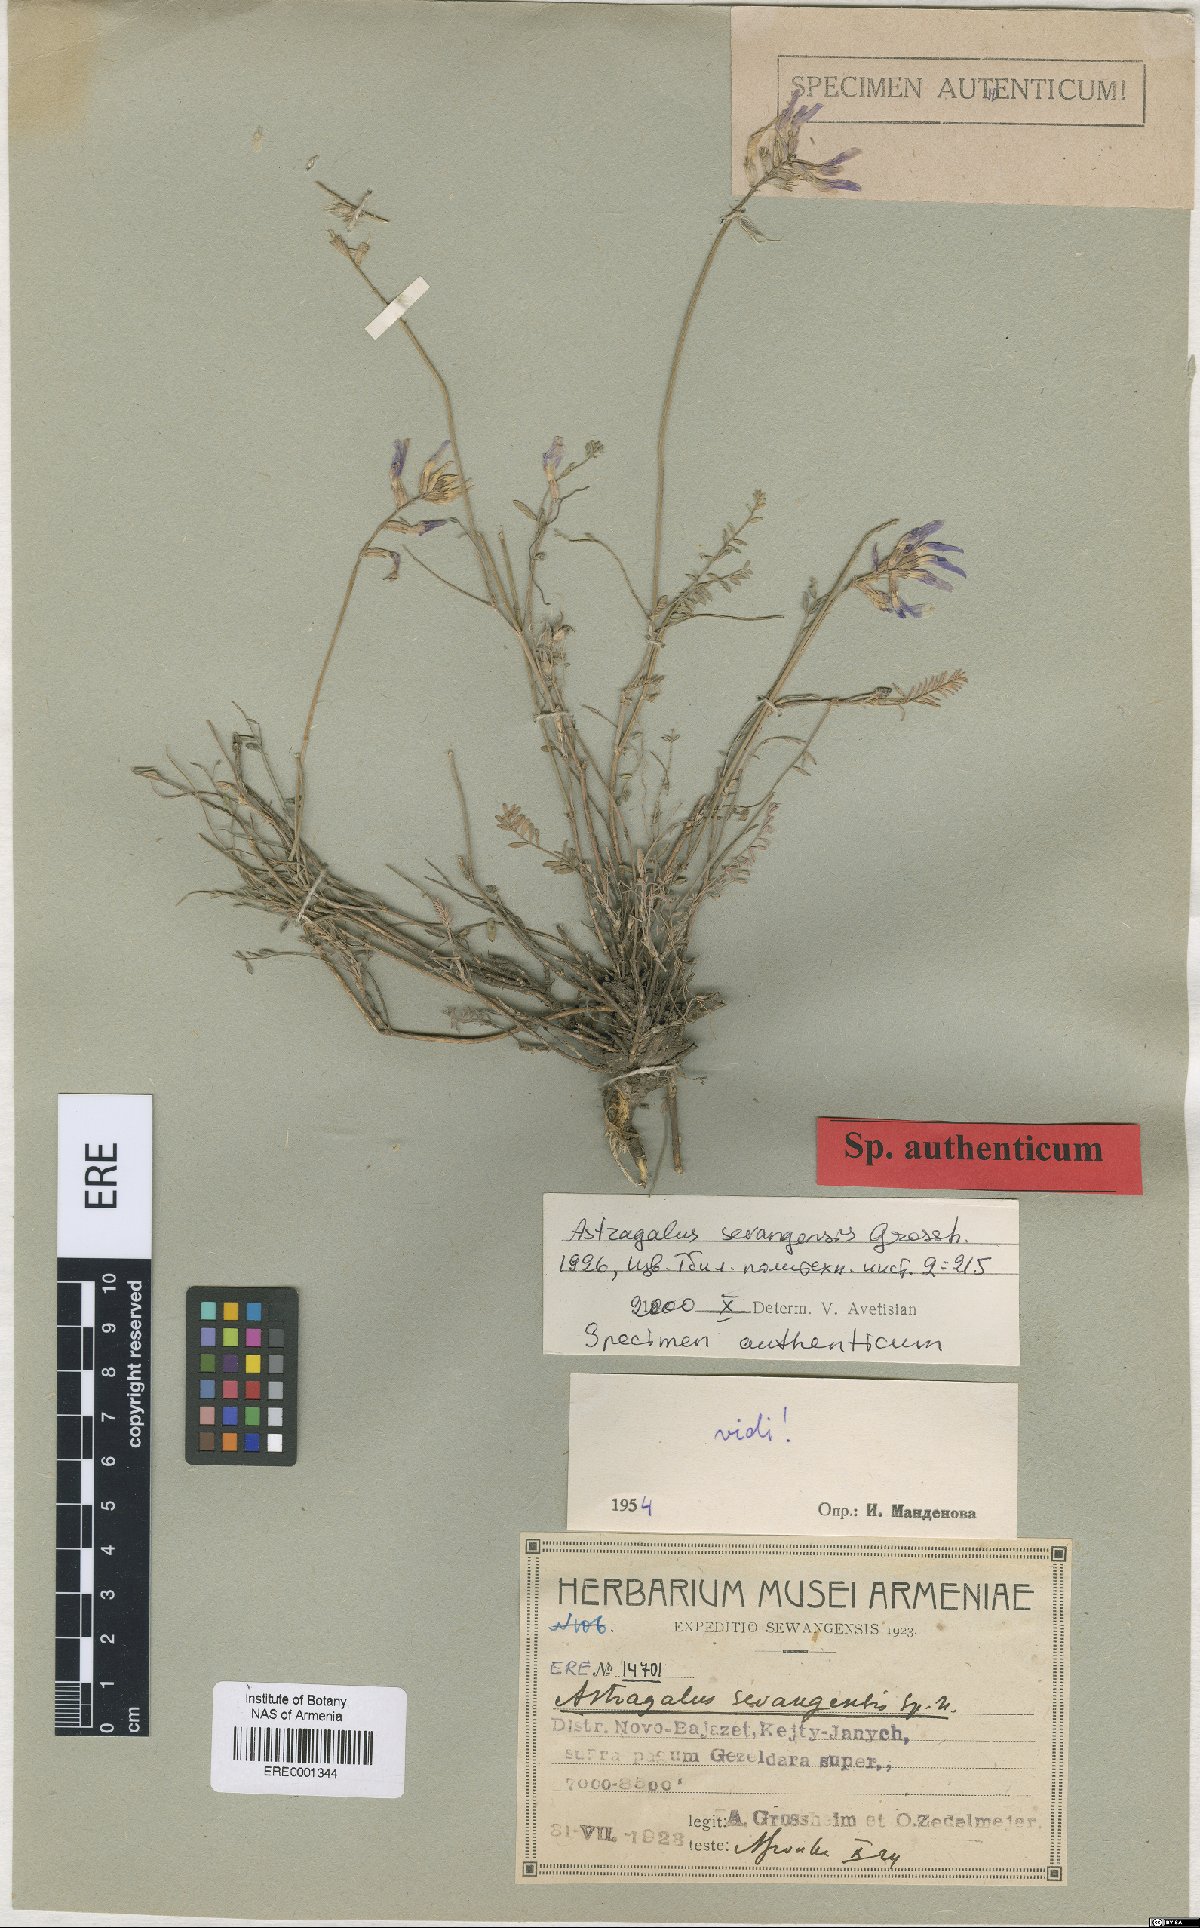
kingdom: Plantae
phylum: Tracheophyta
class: Magnoliopsida
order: Fabales
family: Fabaceae
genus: Astragalus
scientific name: Astragalus sevangensis
